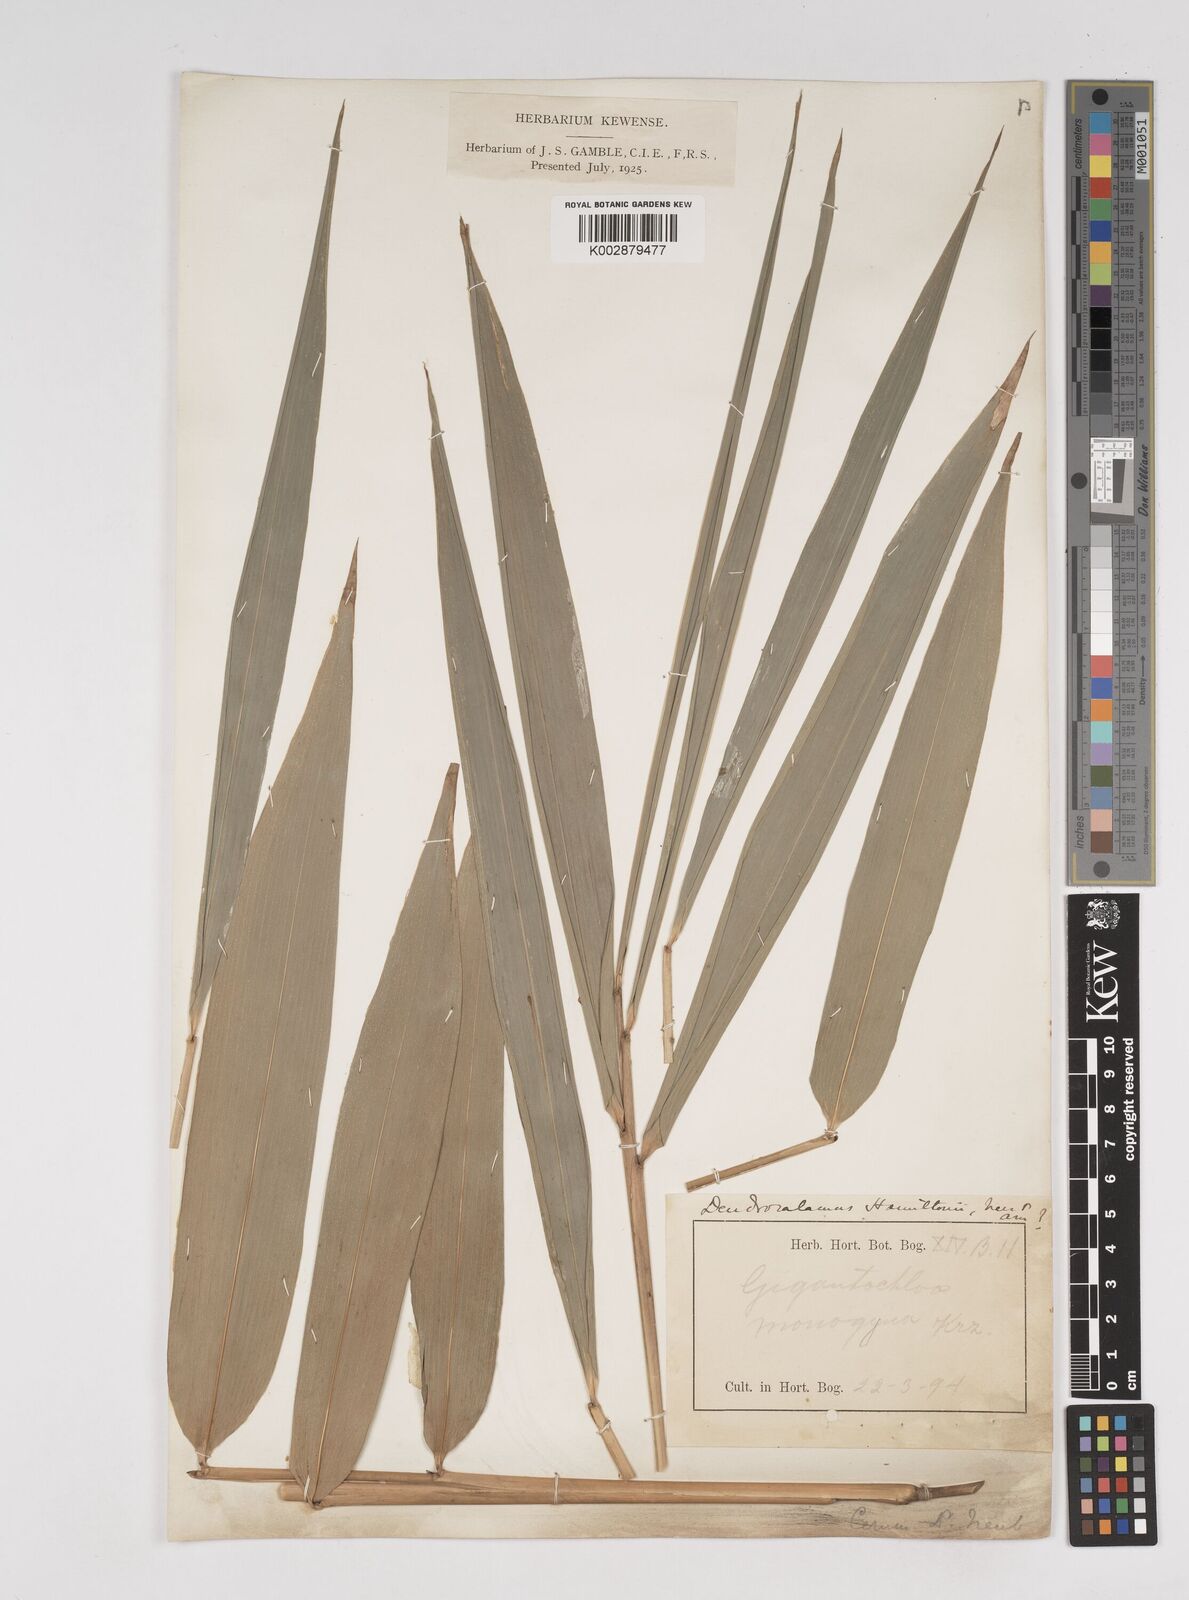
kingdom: Plantae
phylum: Tracheophyta
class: Liliopsida
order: Poales
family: Poaceae
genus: Dendrocalamus
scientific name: Dendrocalamus
